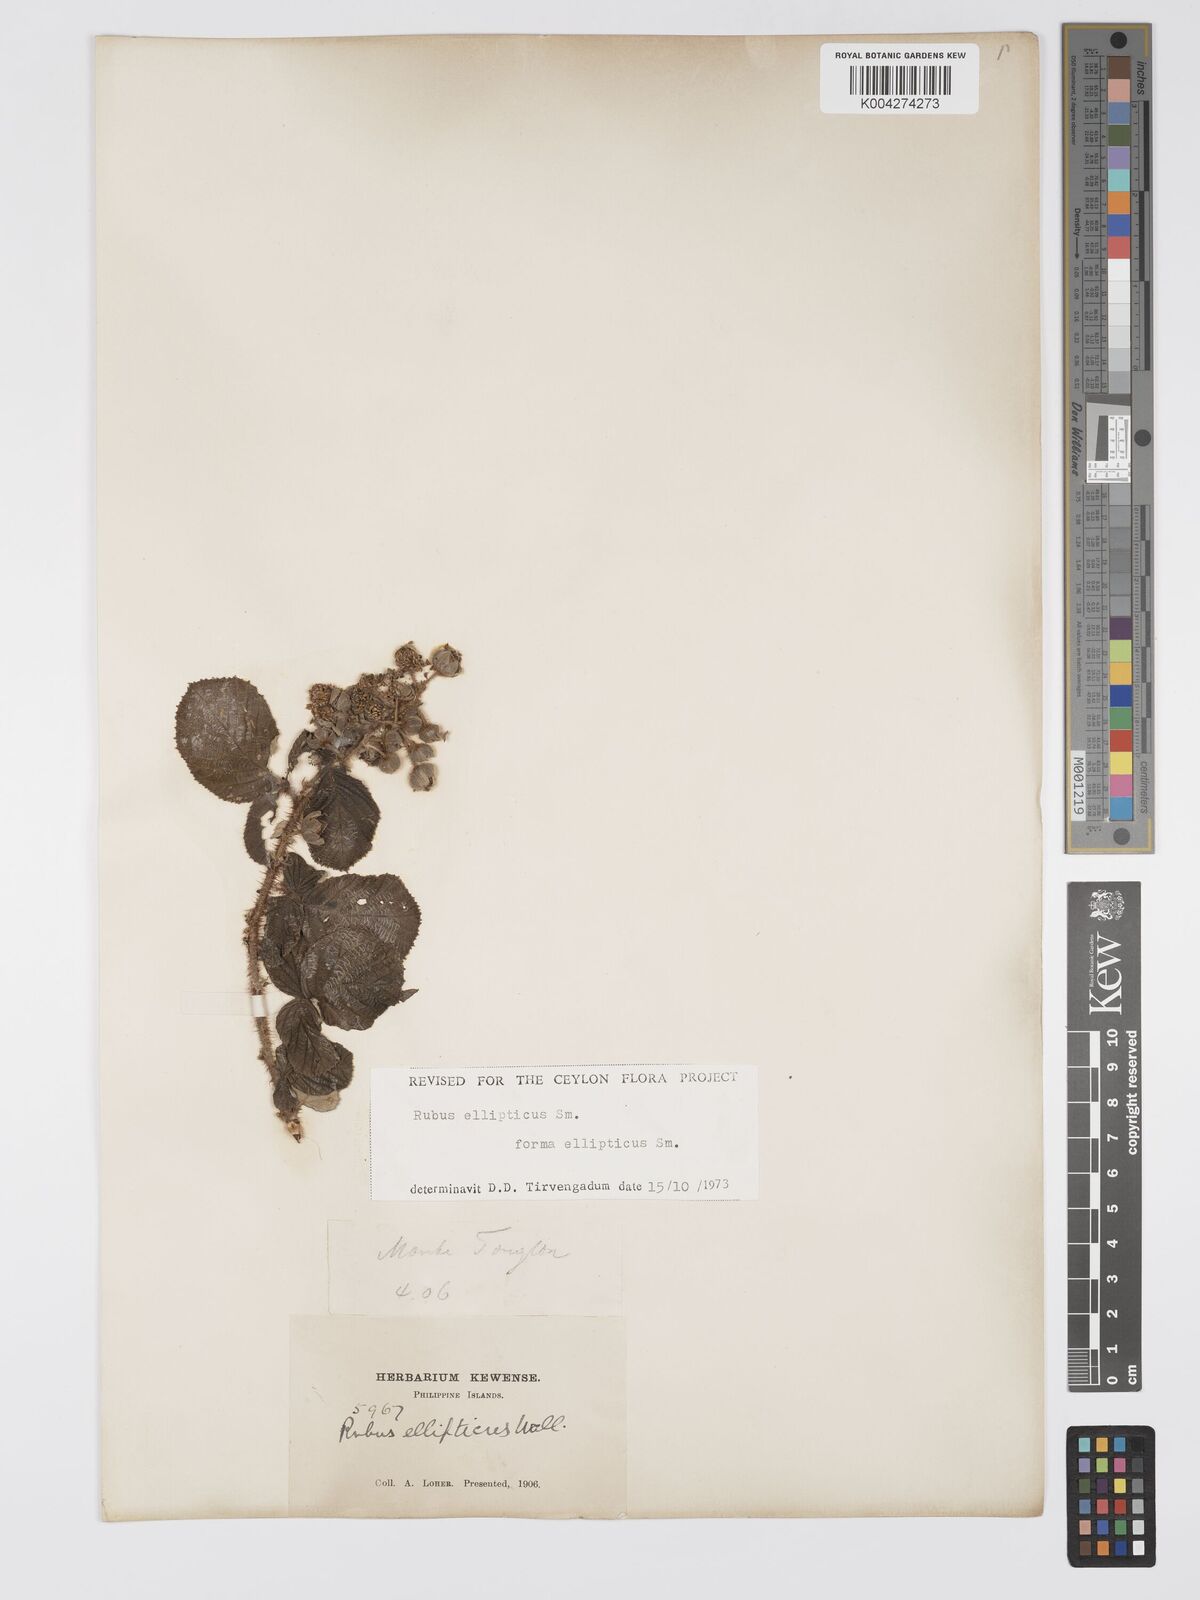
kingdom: Plantae
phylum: Tracheophyta
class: Magnoliopsida
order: Rosales
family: Rosaceae
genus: Rubus
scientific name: Rubus ellipticus
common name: Cheeseberry
